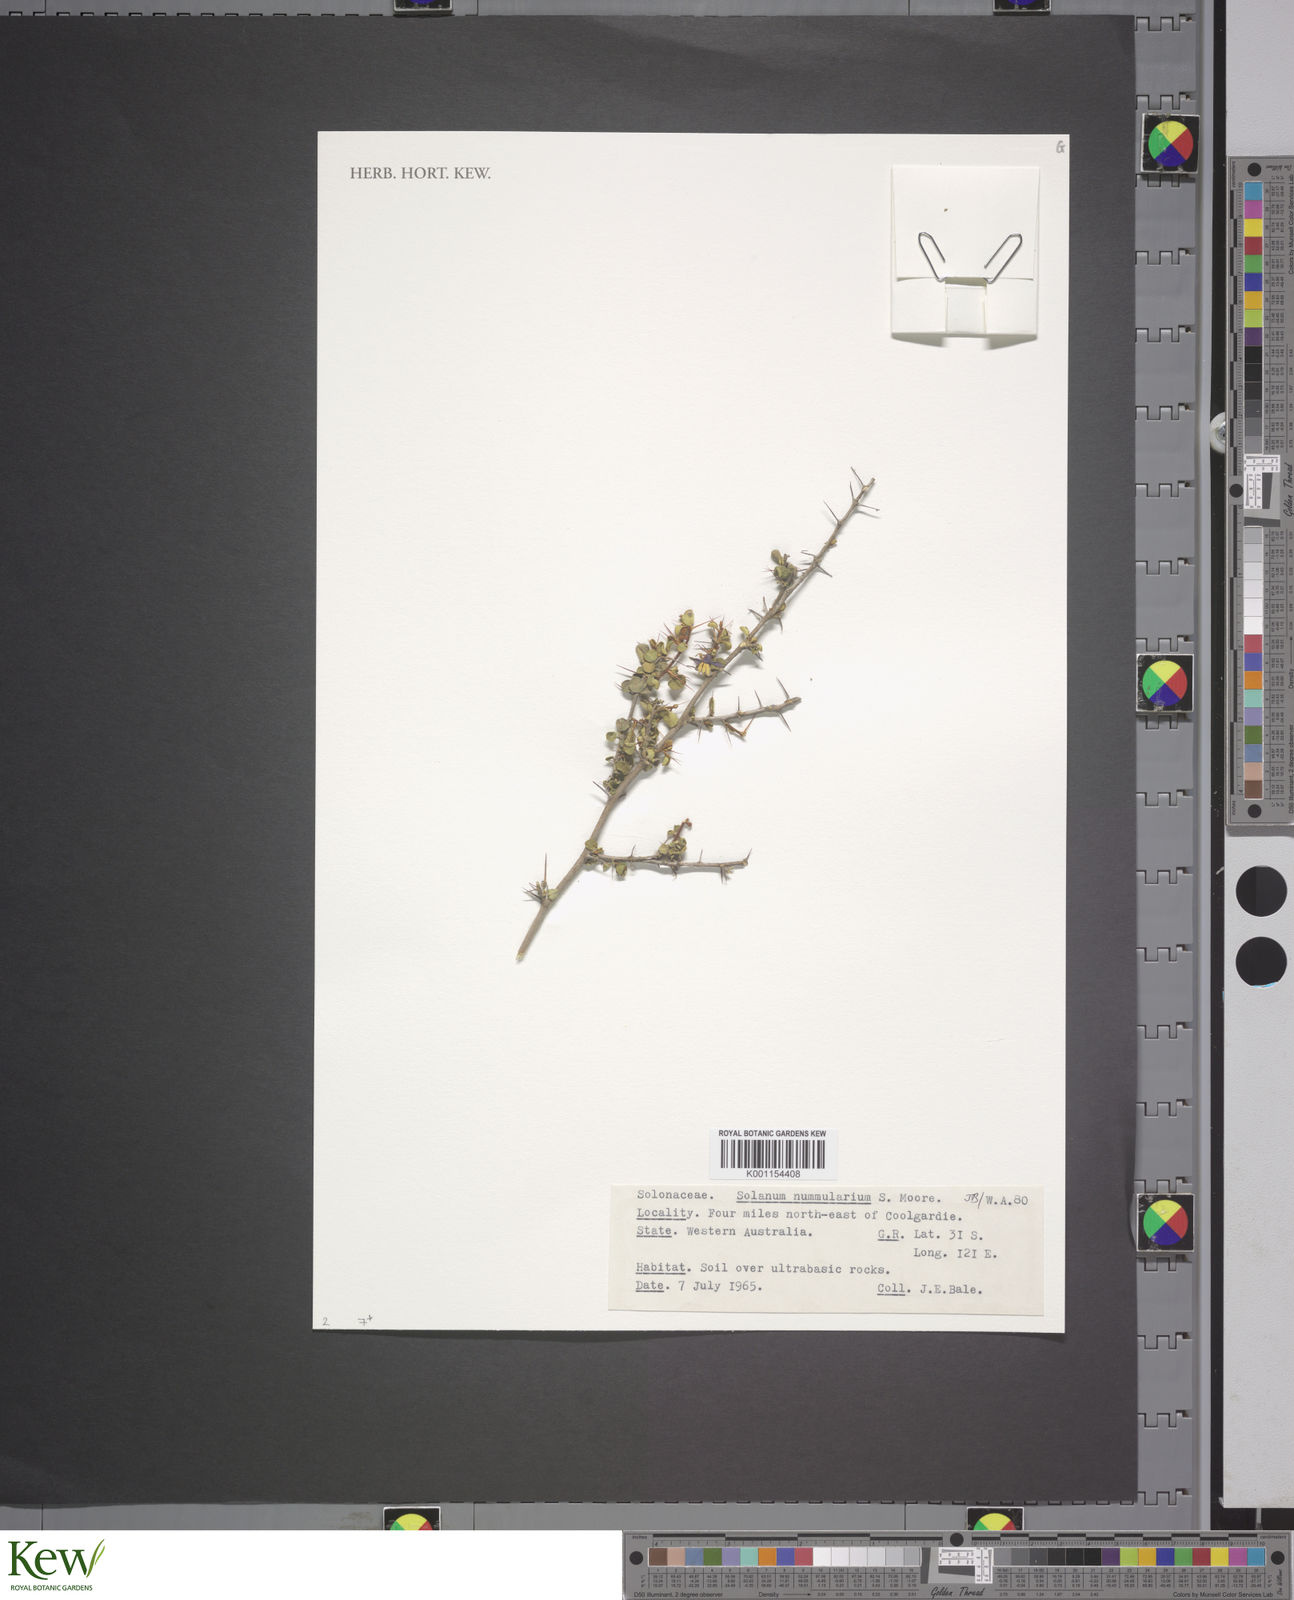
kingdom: Plantae
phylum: Tracheophyta
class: Magnoliopsida
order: Solanales
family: Solanaceae
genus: Solanum
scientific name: Solanum nummularium
